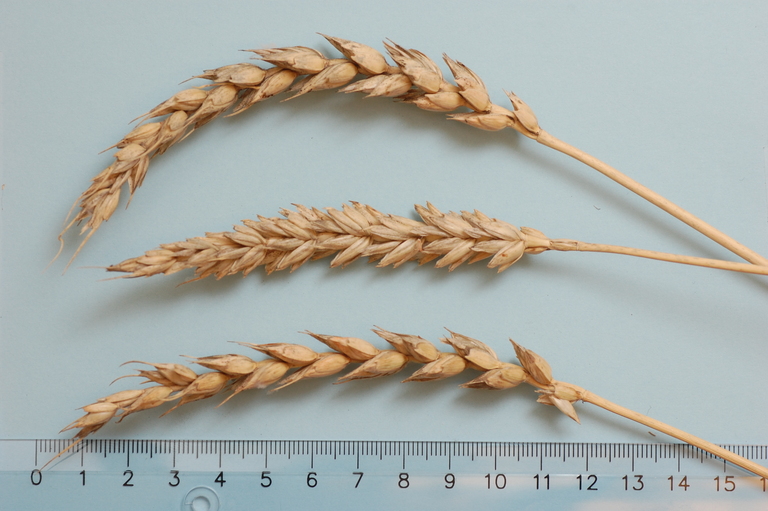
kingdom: Plantae
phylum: Tracheophyta
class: Liliopsida
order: Poales
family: Poaceae
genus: Triticum
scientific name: Triticum aestivum
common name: Common wheat
